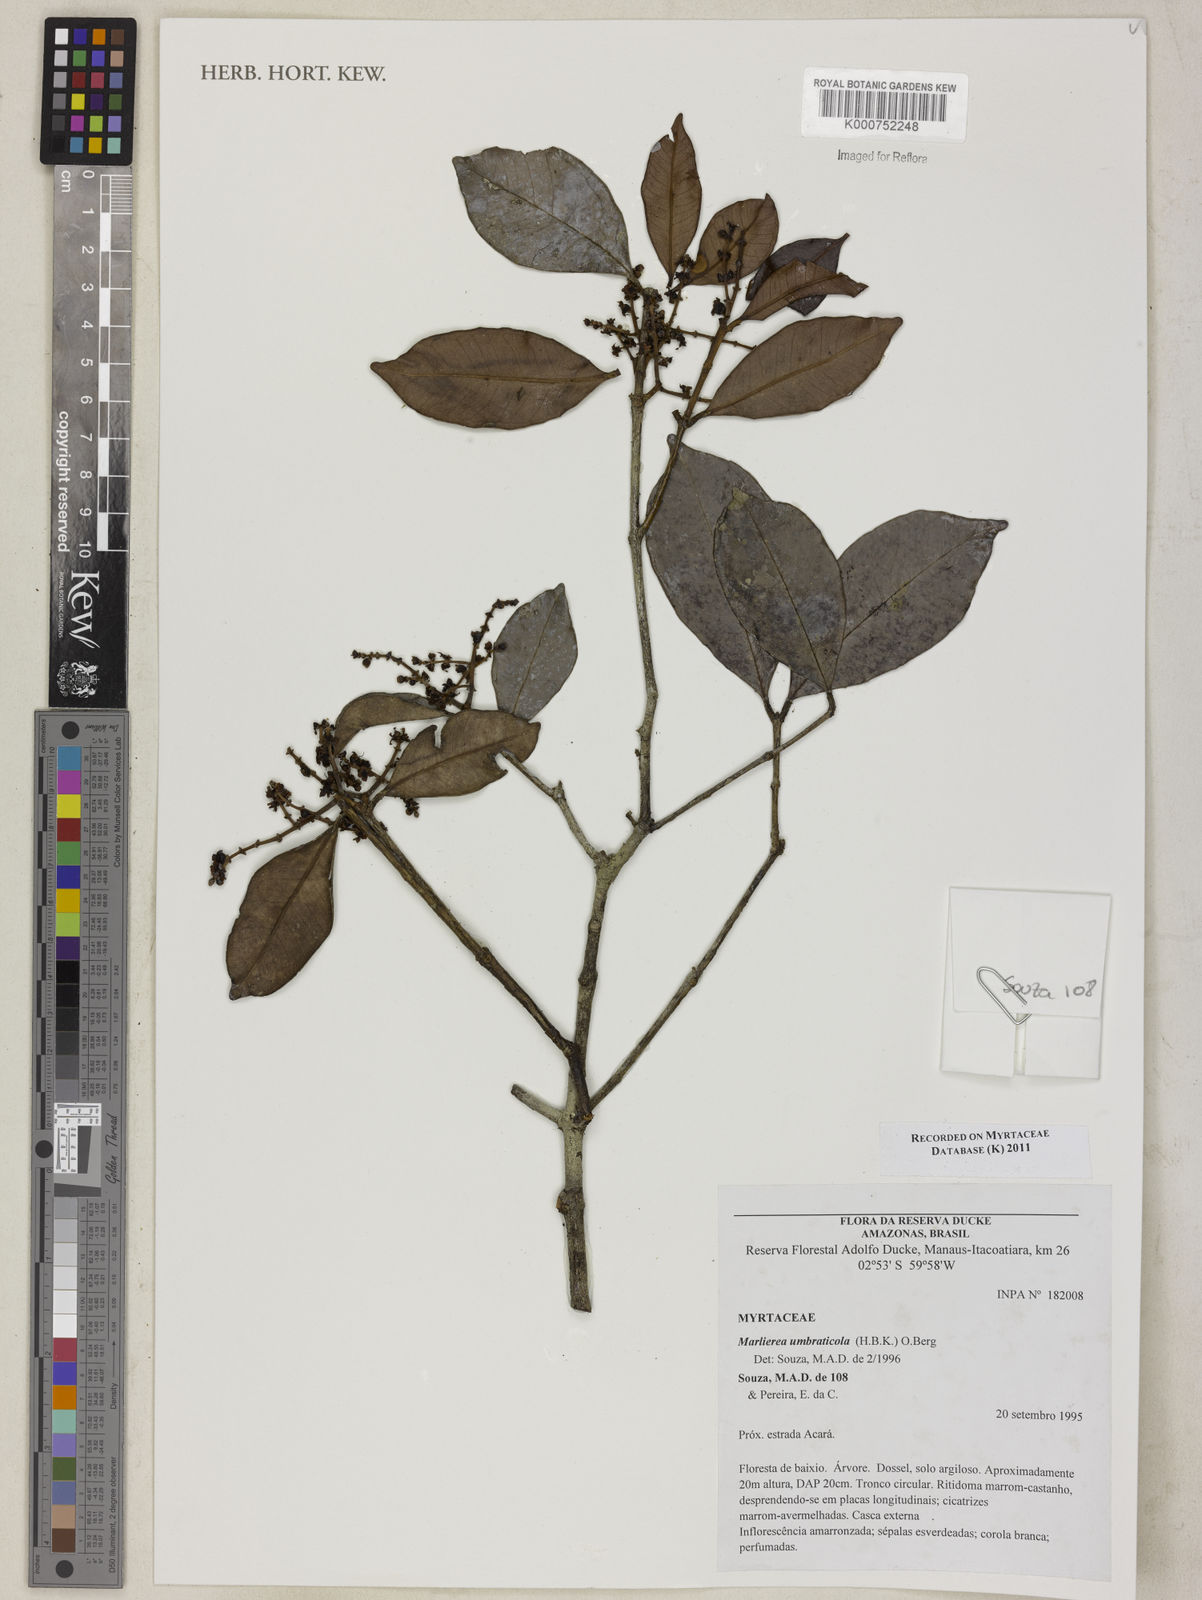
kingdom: Plantae
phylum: Tracheophyta
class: Magnoliopsida
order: Myrtales
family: Myrtaceae
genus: Myrcia
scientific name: Myrcia umbraticola
